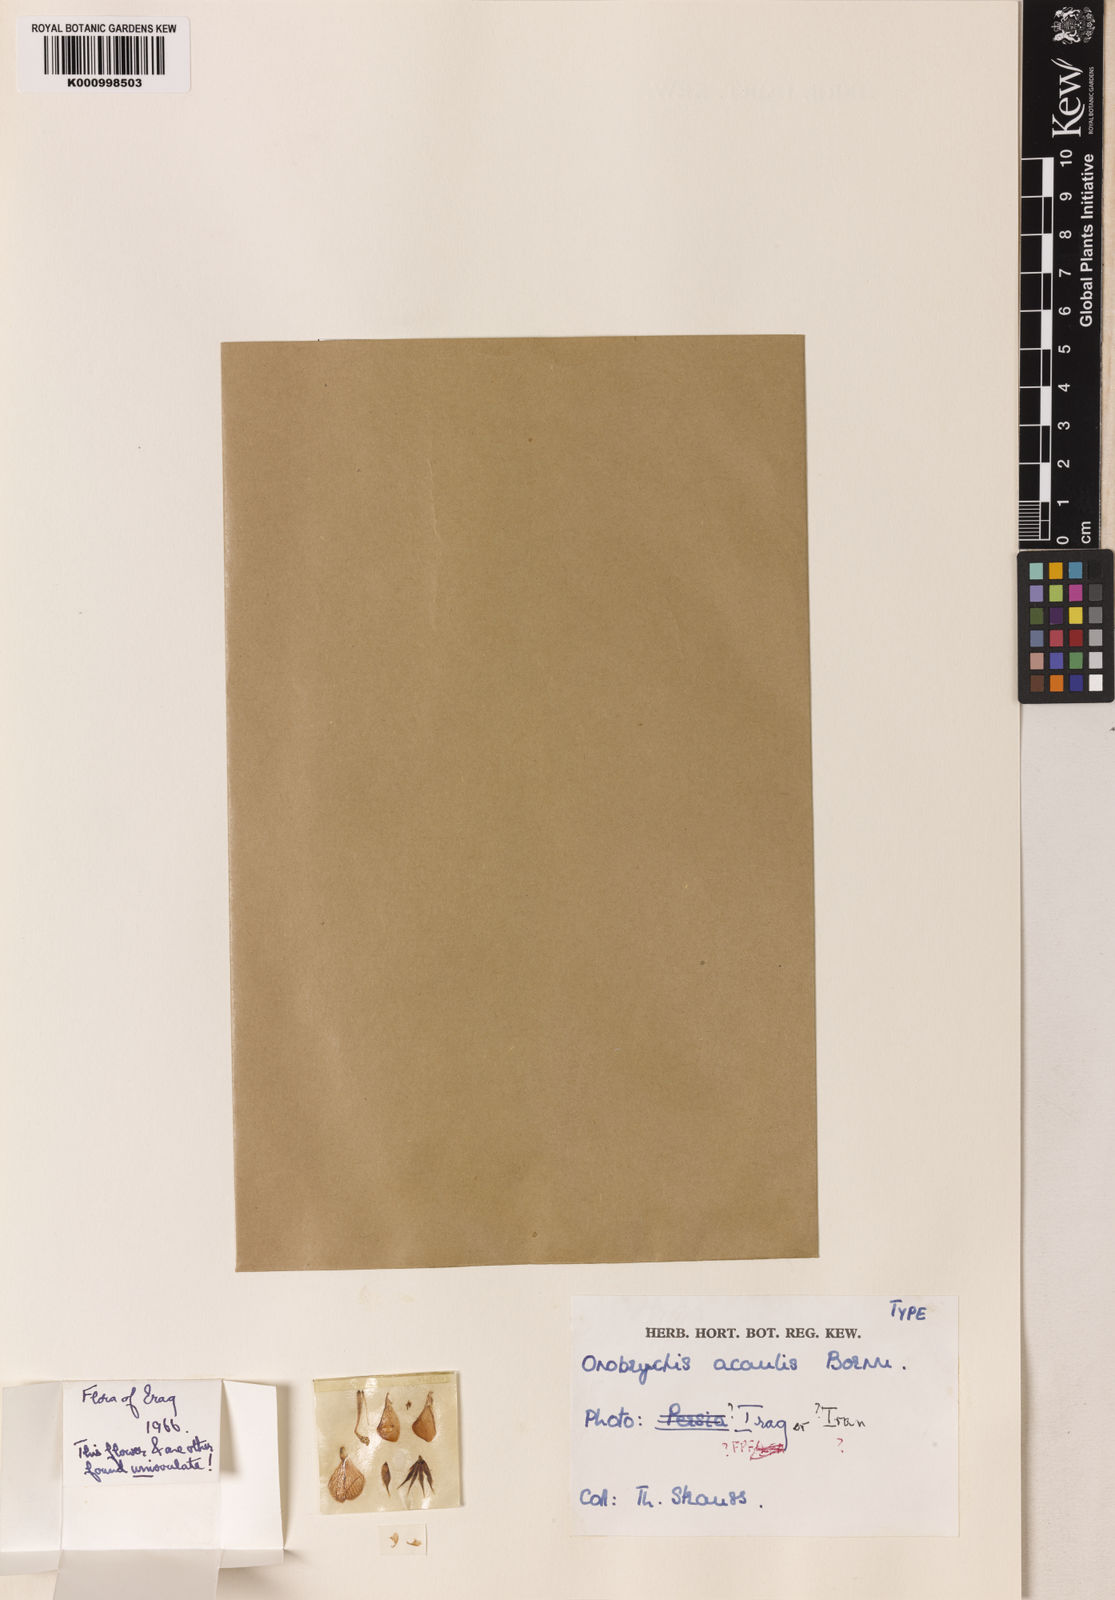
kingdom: Plantae
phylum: Tracheophyta
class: Magnoliopsida
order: Fabales
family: Fabaceae
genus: Onobrychis
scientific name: Onobrychis acaulis
